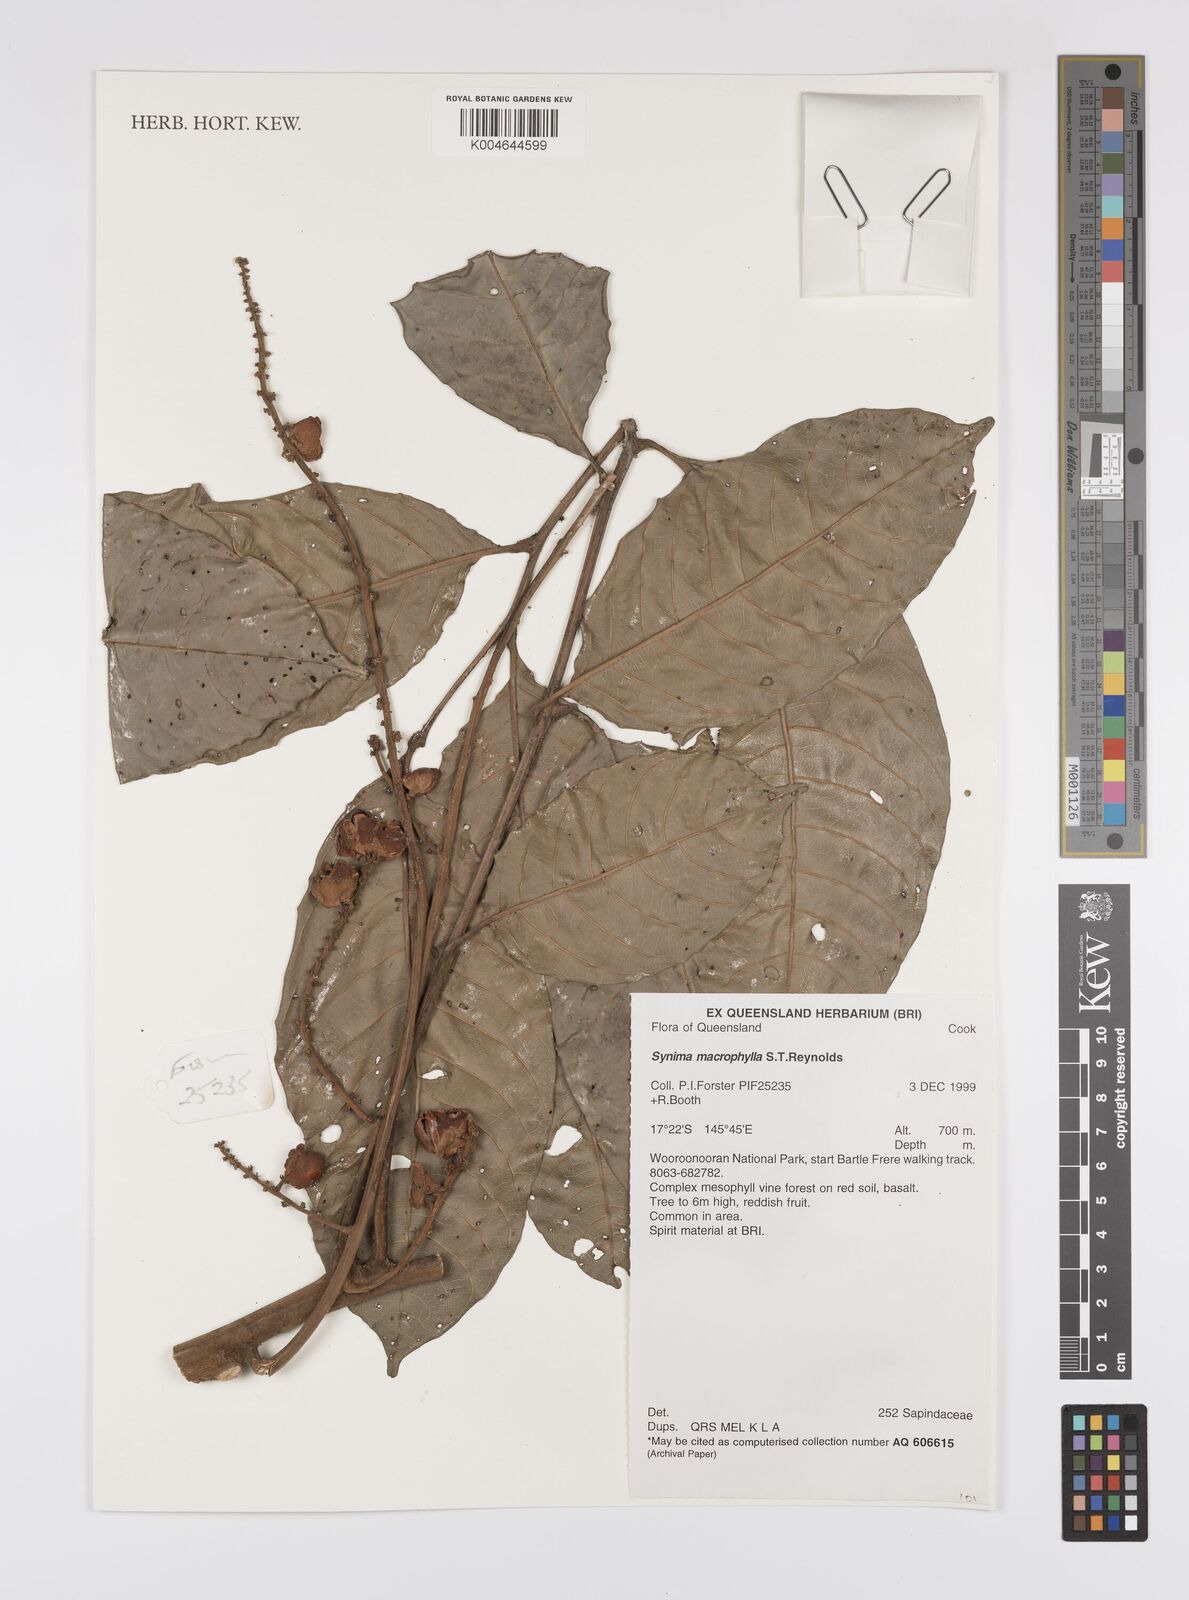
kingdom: Plantae
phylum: Tracheophyta
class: Magnoliopsida
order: Sapindales
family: Sapindaceae
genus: Synima
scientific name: Synima macrophylla
